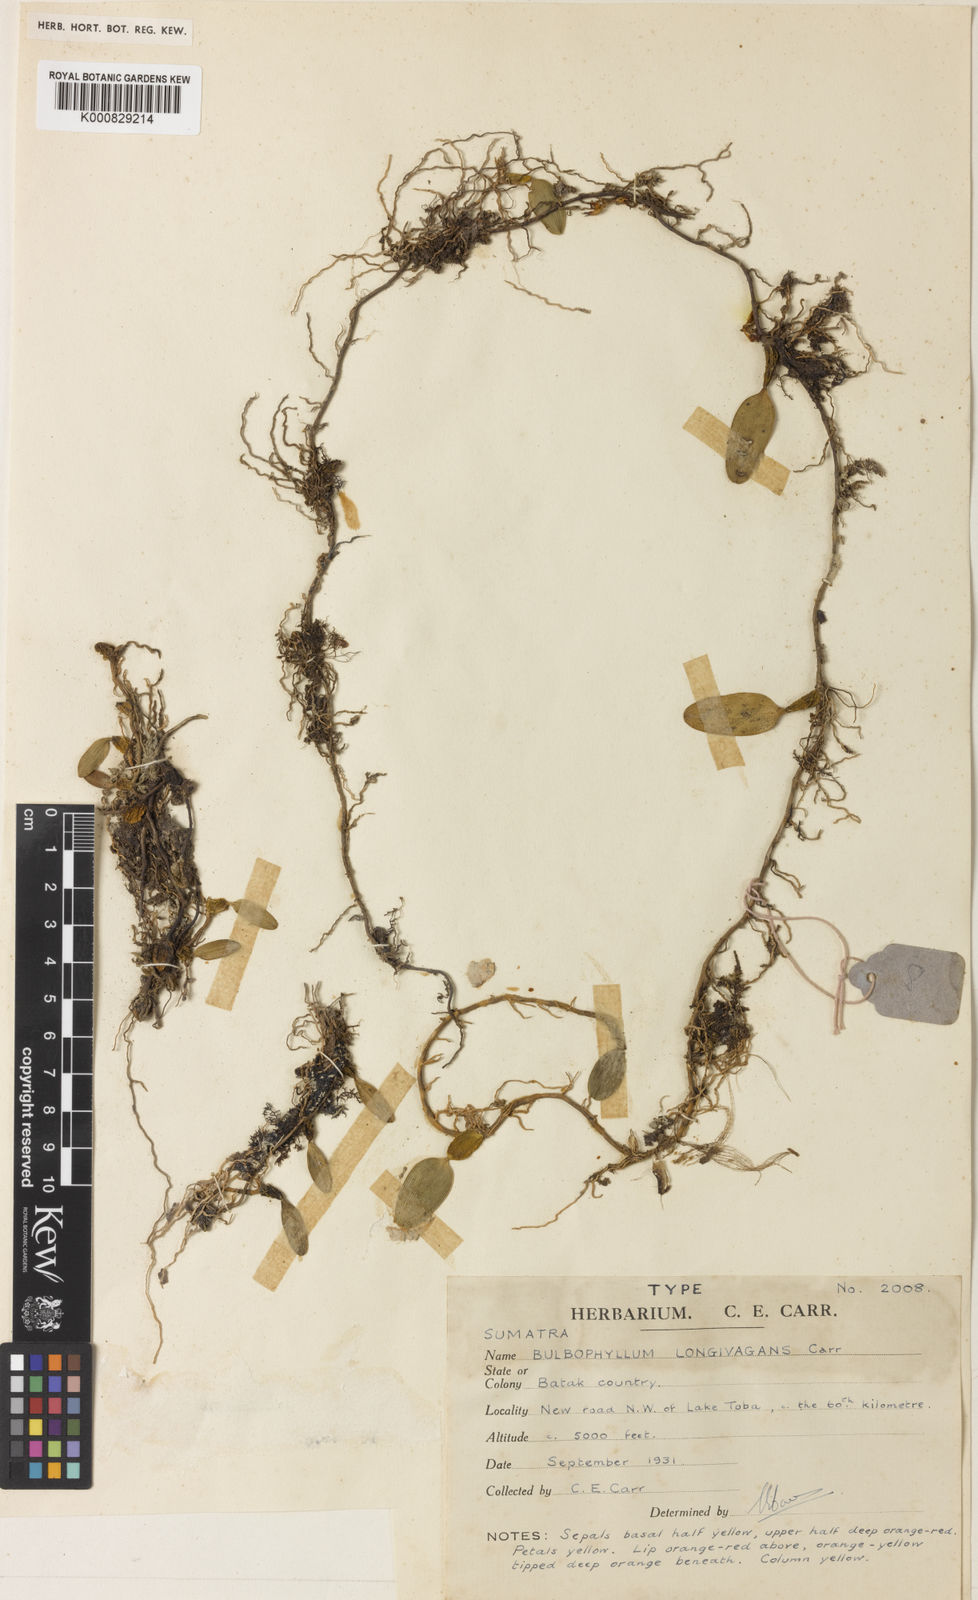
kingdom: Plantae
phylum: Tracheophyta
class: Liliopsida
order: Asparagales
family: Orchidaceae
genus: Bulbophyllum
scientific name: Bulbophyllum longivagans
